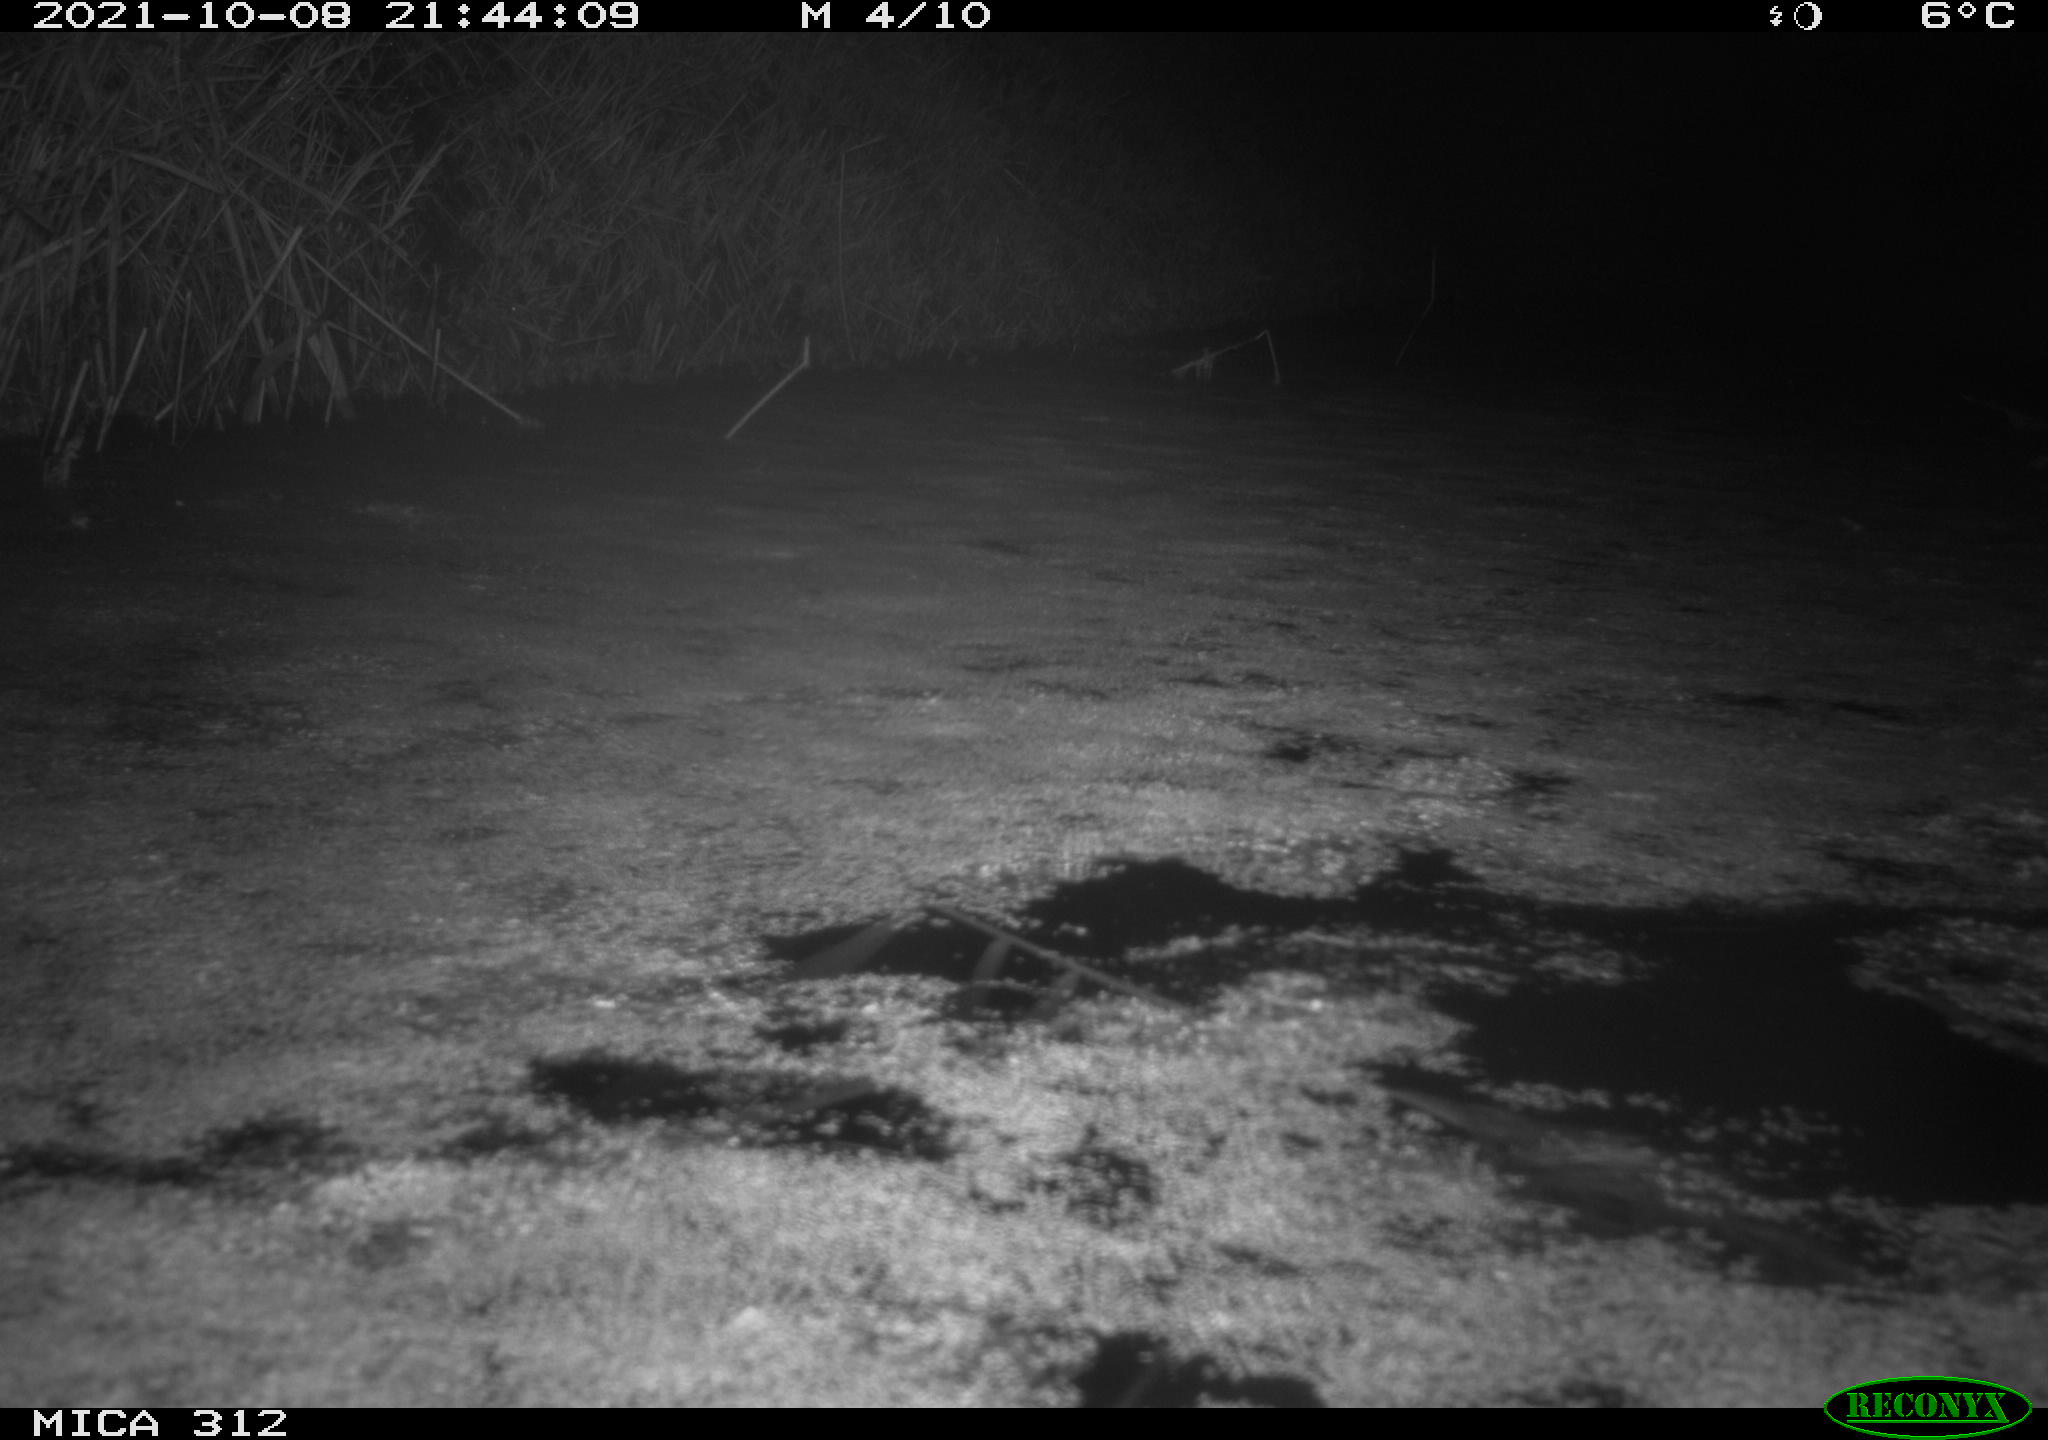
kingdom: Animalia
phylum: Chordata
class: Mammalia
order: Rodentia
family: Muridae
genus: Rattus
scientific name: Rattus norvegicus
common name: Brown rat
